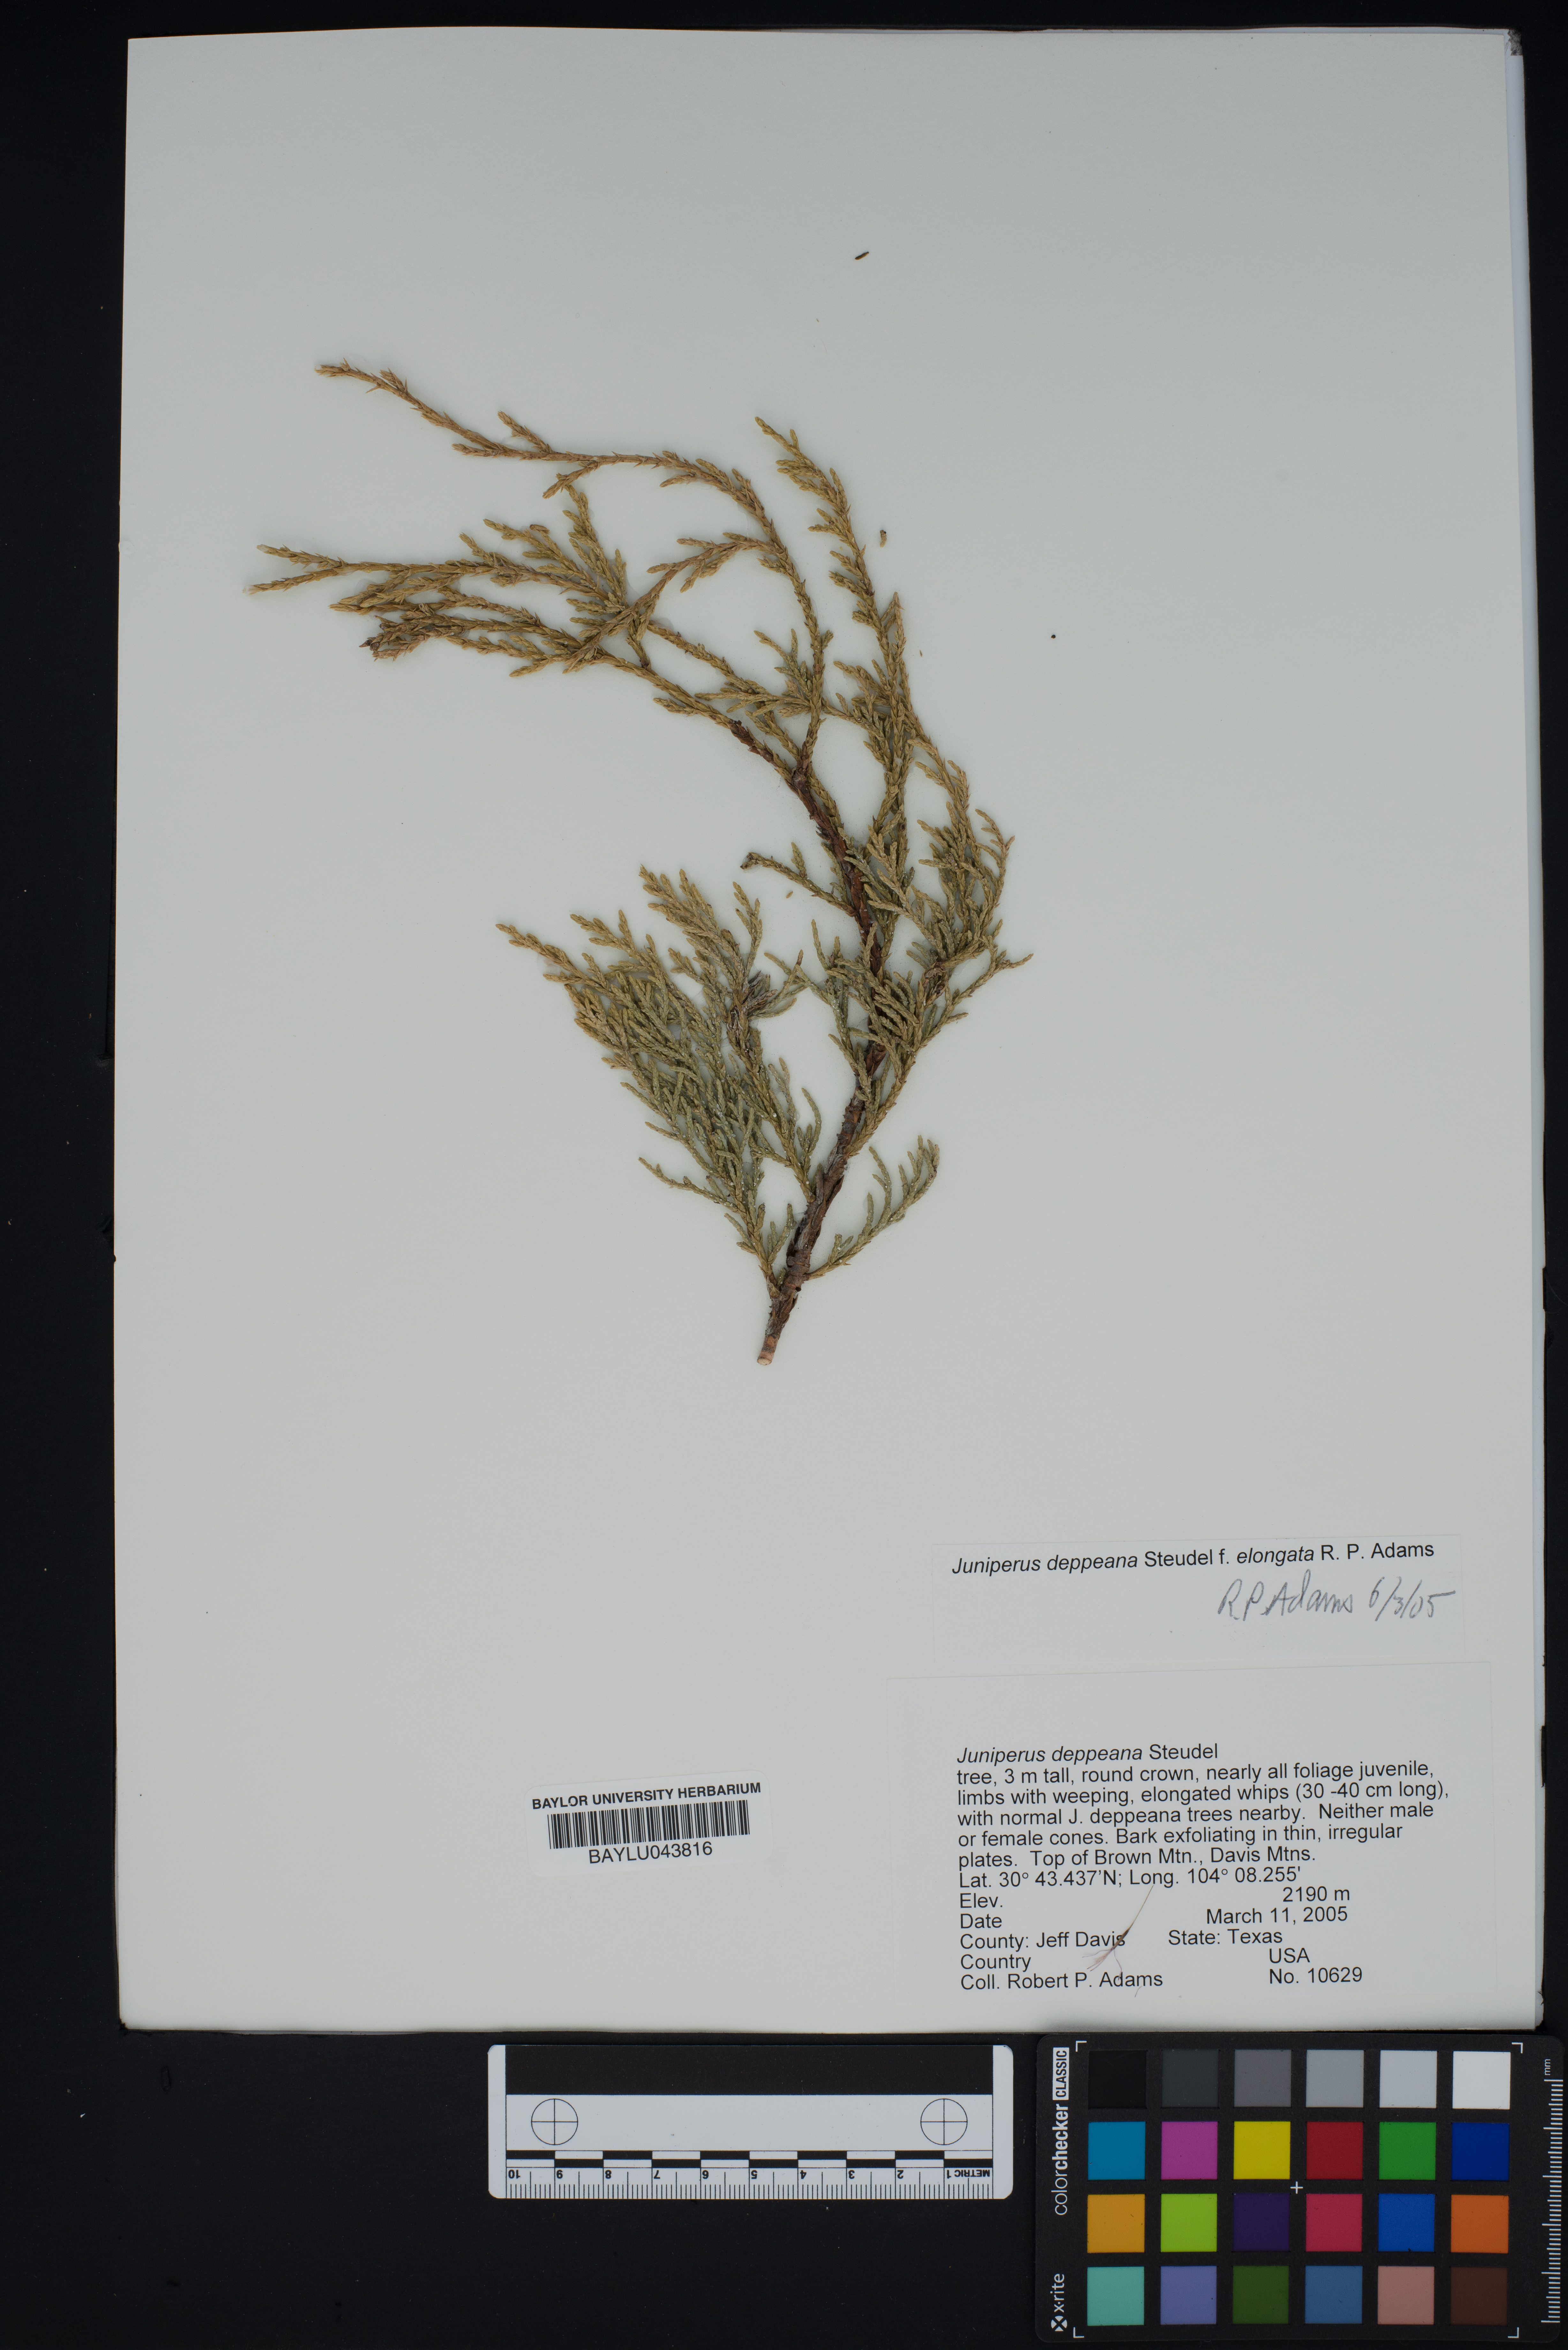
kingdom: Plantae
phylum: Tracheophyta
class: Pinopsida
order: Pinales
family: Cupressaceae
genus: Juniperus
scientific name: Juniperus deppeana
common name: Alligator juniper
